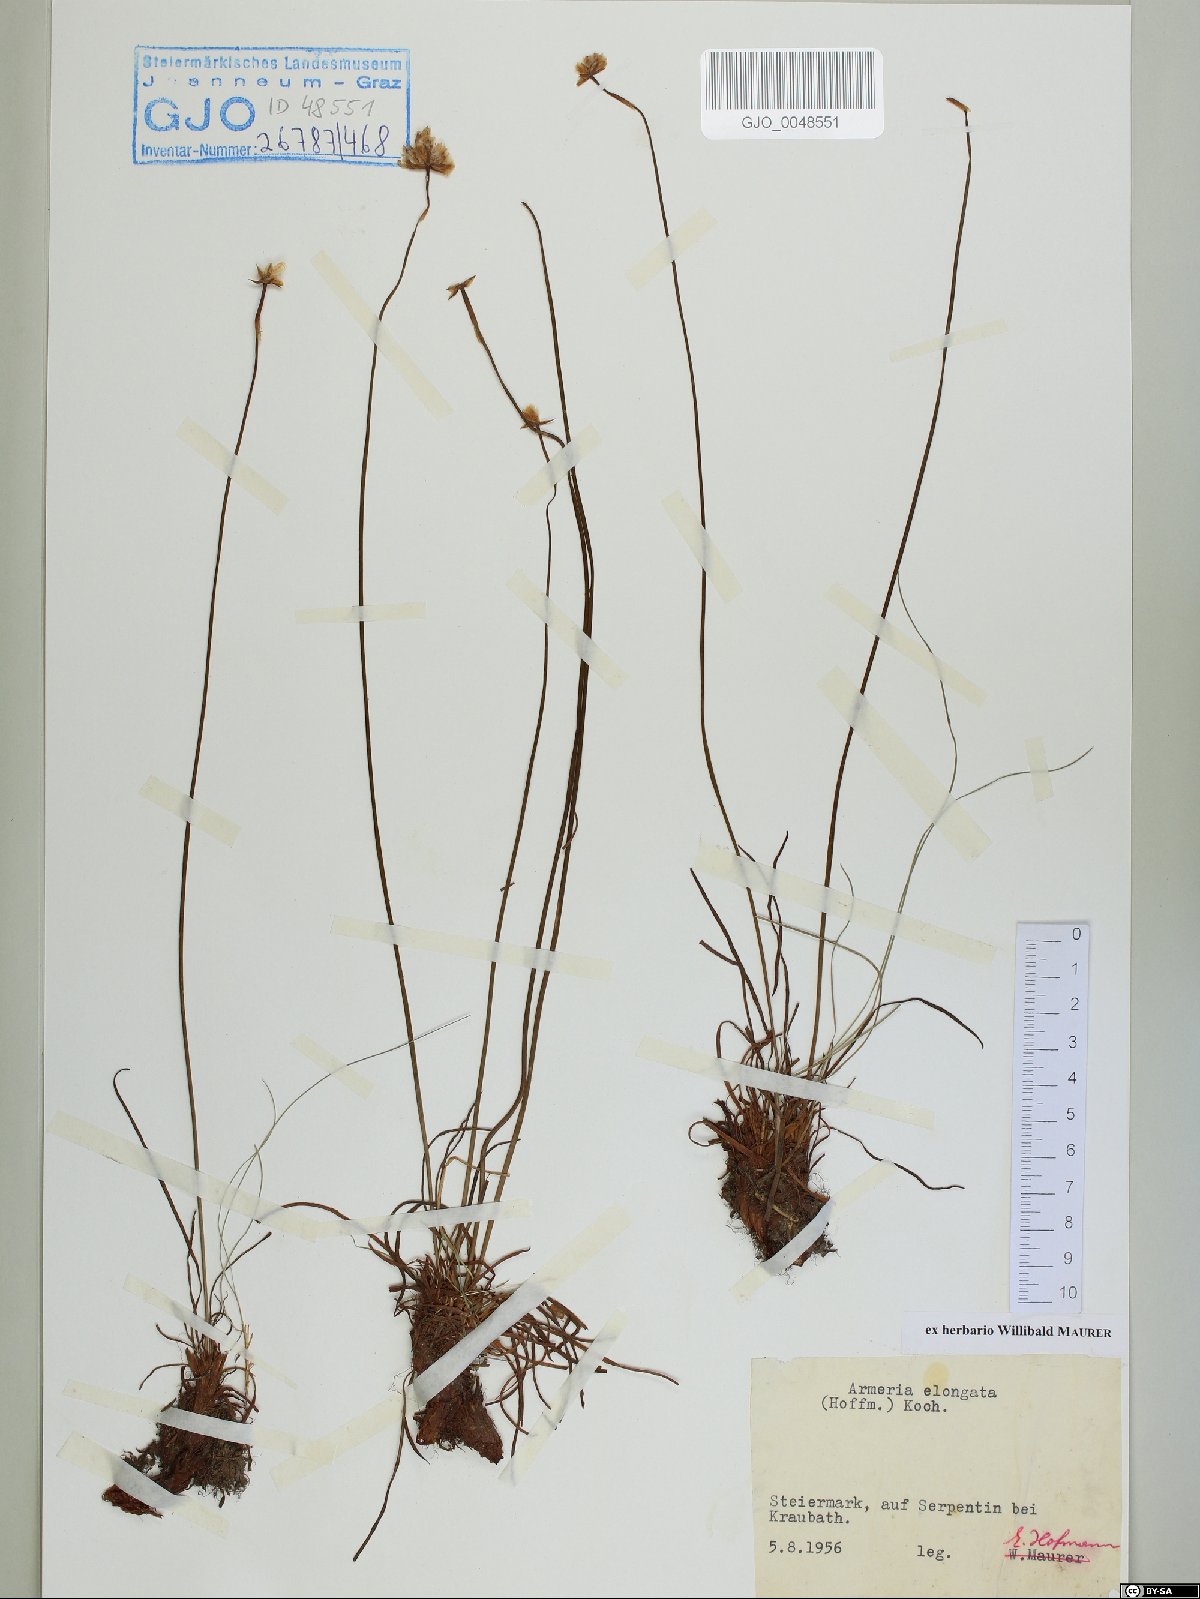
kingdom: Plantae
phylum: Tracheophyta
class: Magnoliopsida
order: Caryophyllales
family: Plumbaginaceae
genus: Armeria
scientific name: Armeria maritima
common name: Thrift
